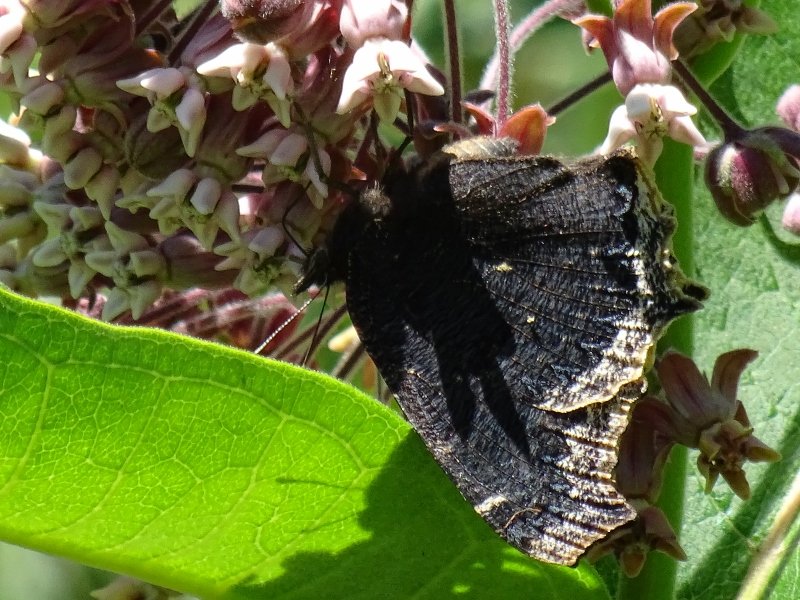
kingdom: Animalia
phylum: Arthropoda
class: Insecta
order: Lepidoptera
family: Nymphalidae
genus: Nymphalis
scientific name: Nymphalis antiopa
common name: Mourning Cloak
